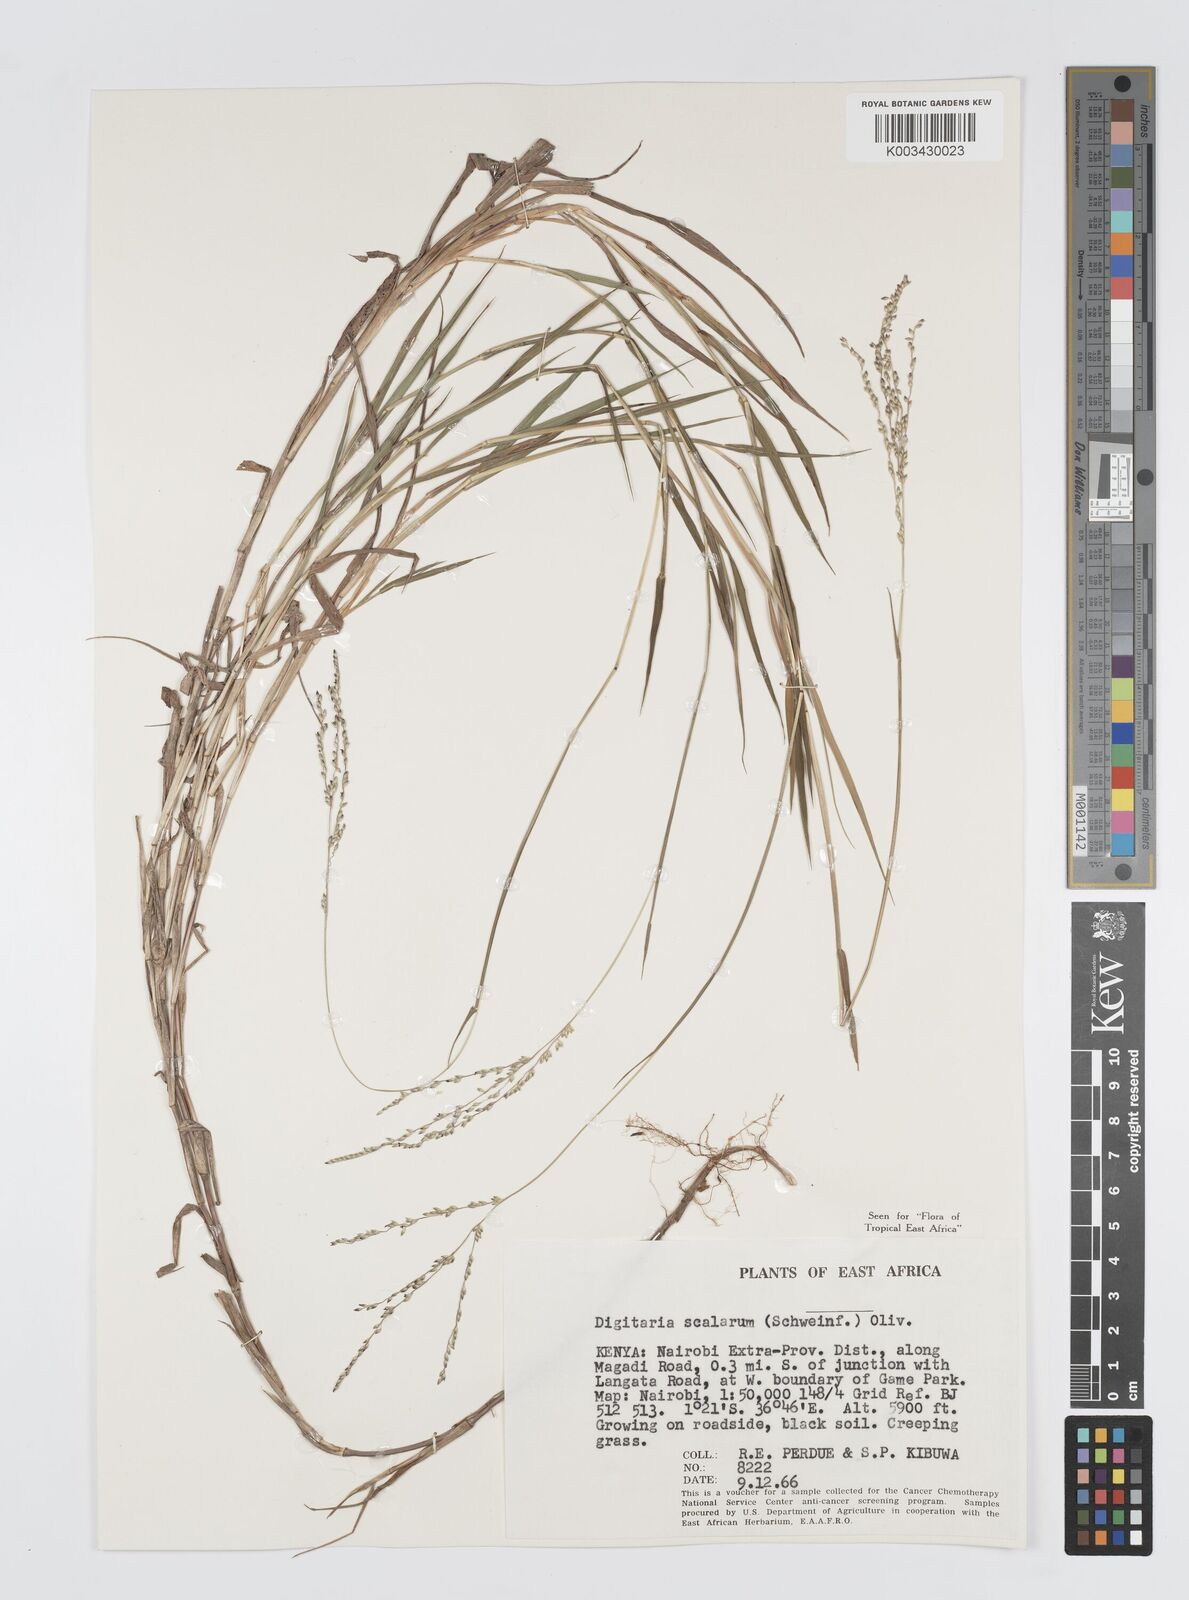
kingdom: Plantae
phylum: Tracheophyta
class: Liliopsida
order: Poales
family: Poaceae
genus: Digitaria
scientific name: Digitaria abyssinica
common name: African couchgrass
